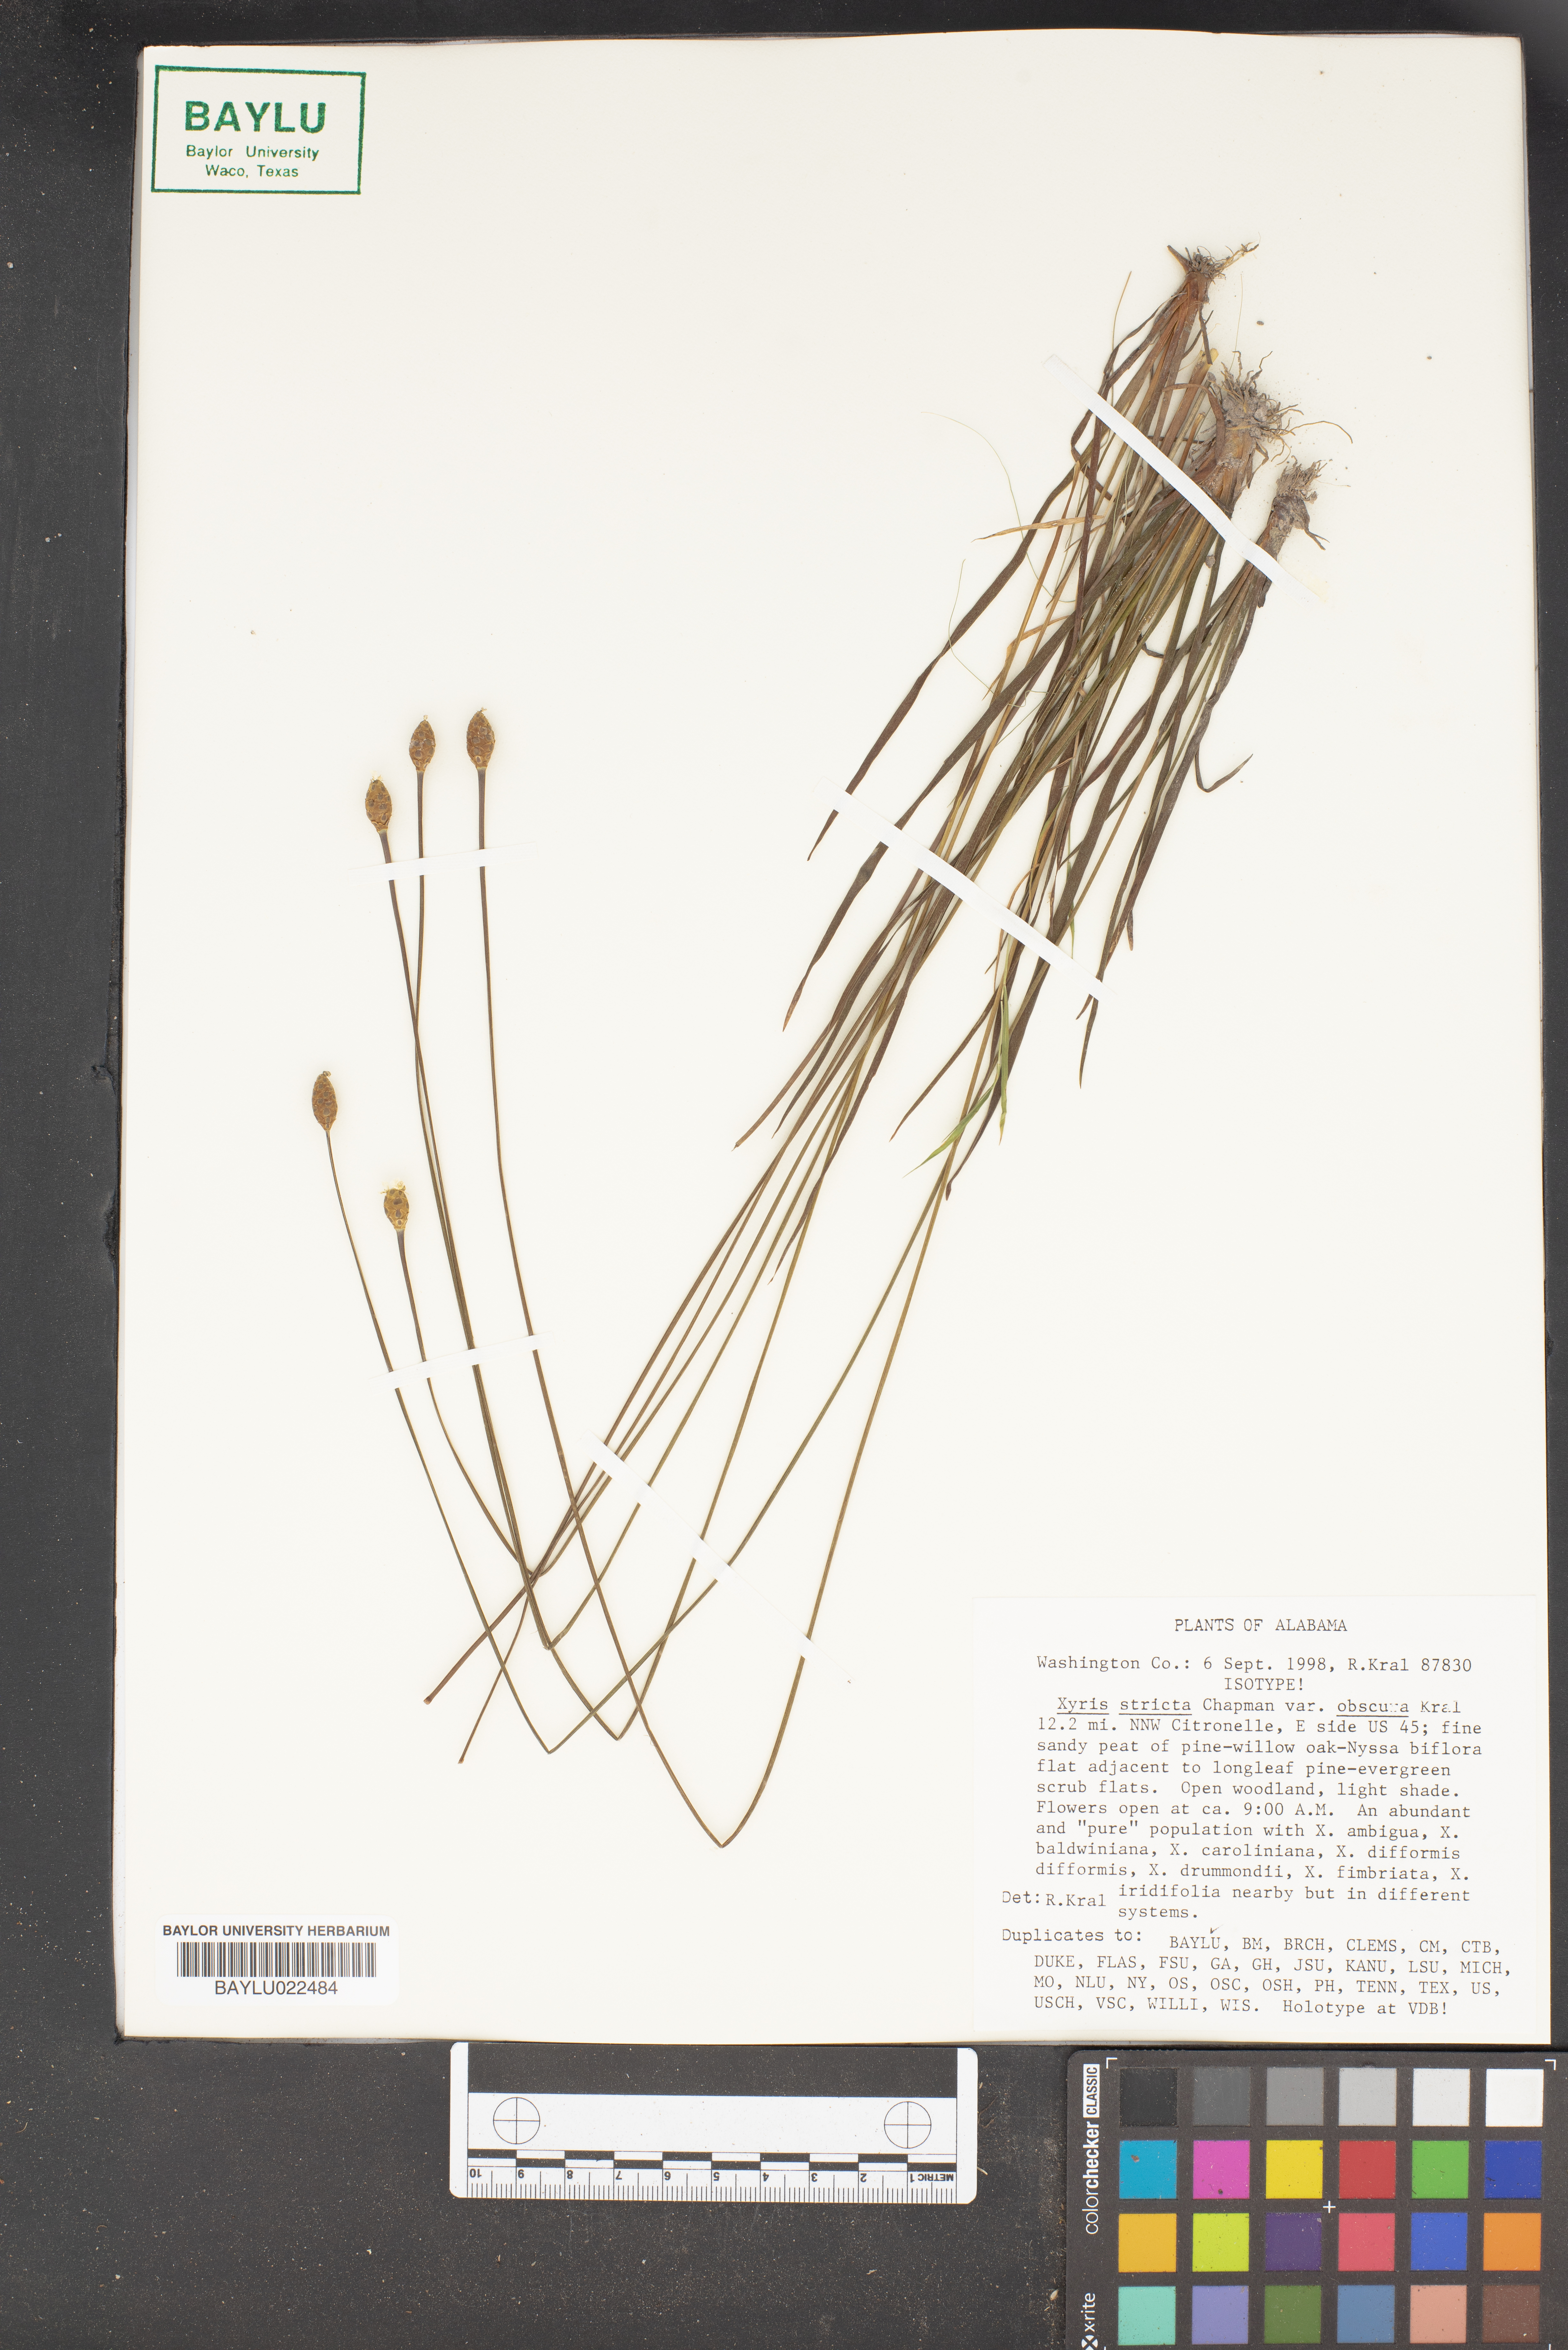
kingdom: Plantae
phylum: Tracheophyta
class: Liliopsida
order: Poales
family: Xyridaceae
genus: Xyris
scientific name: Xyris stricta
